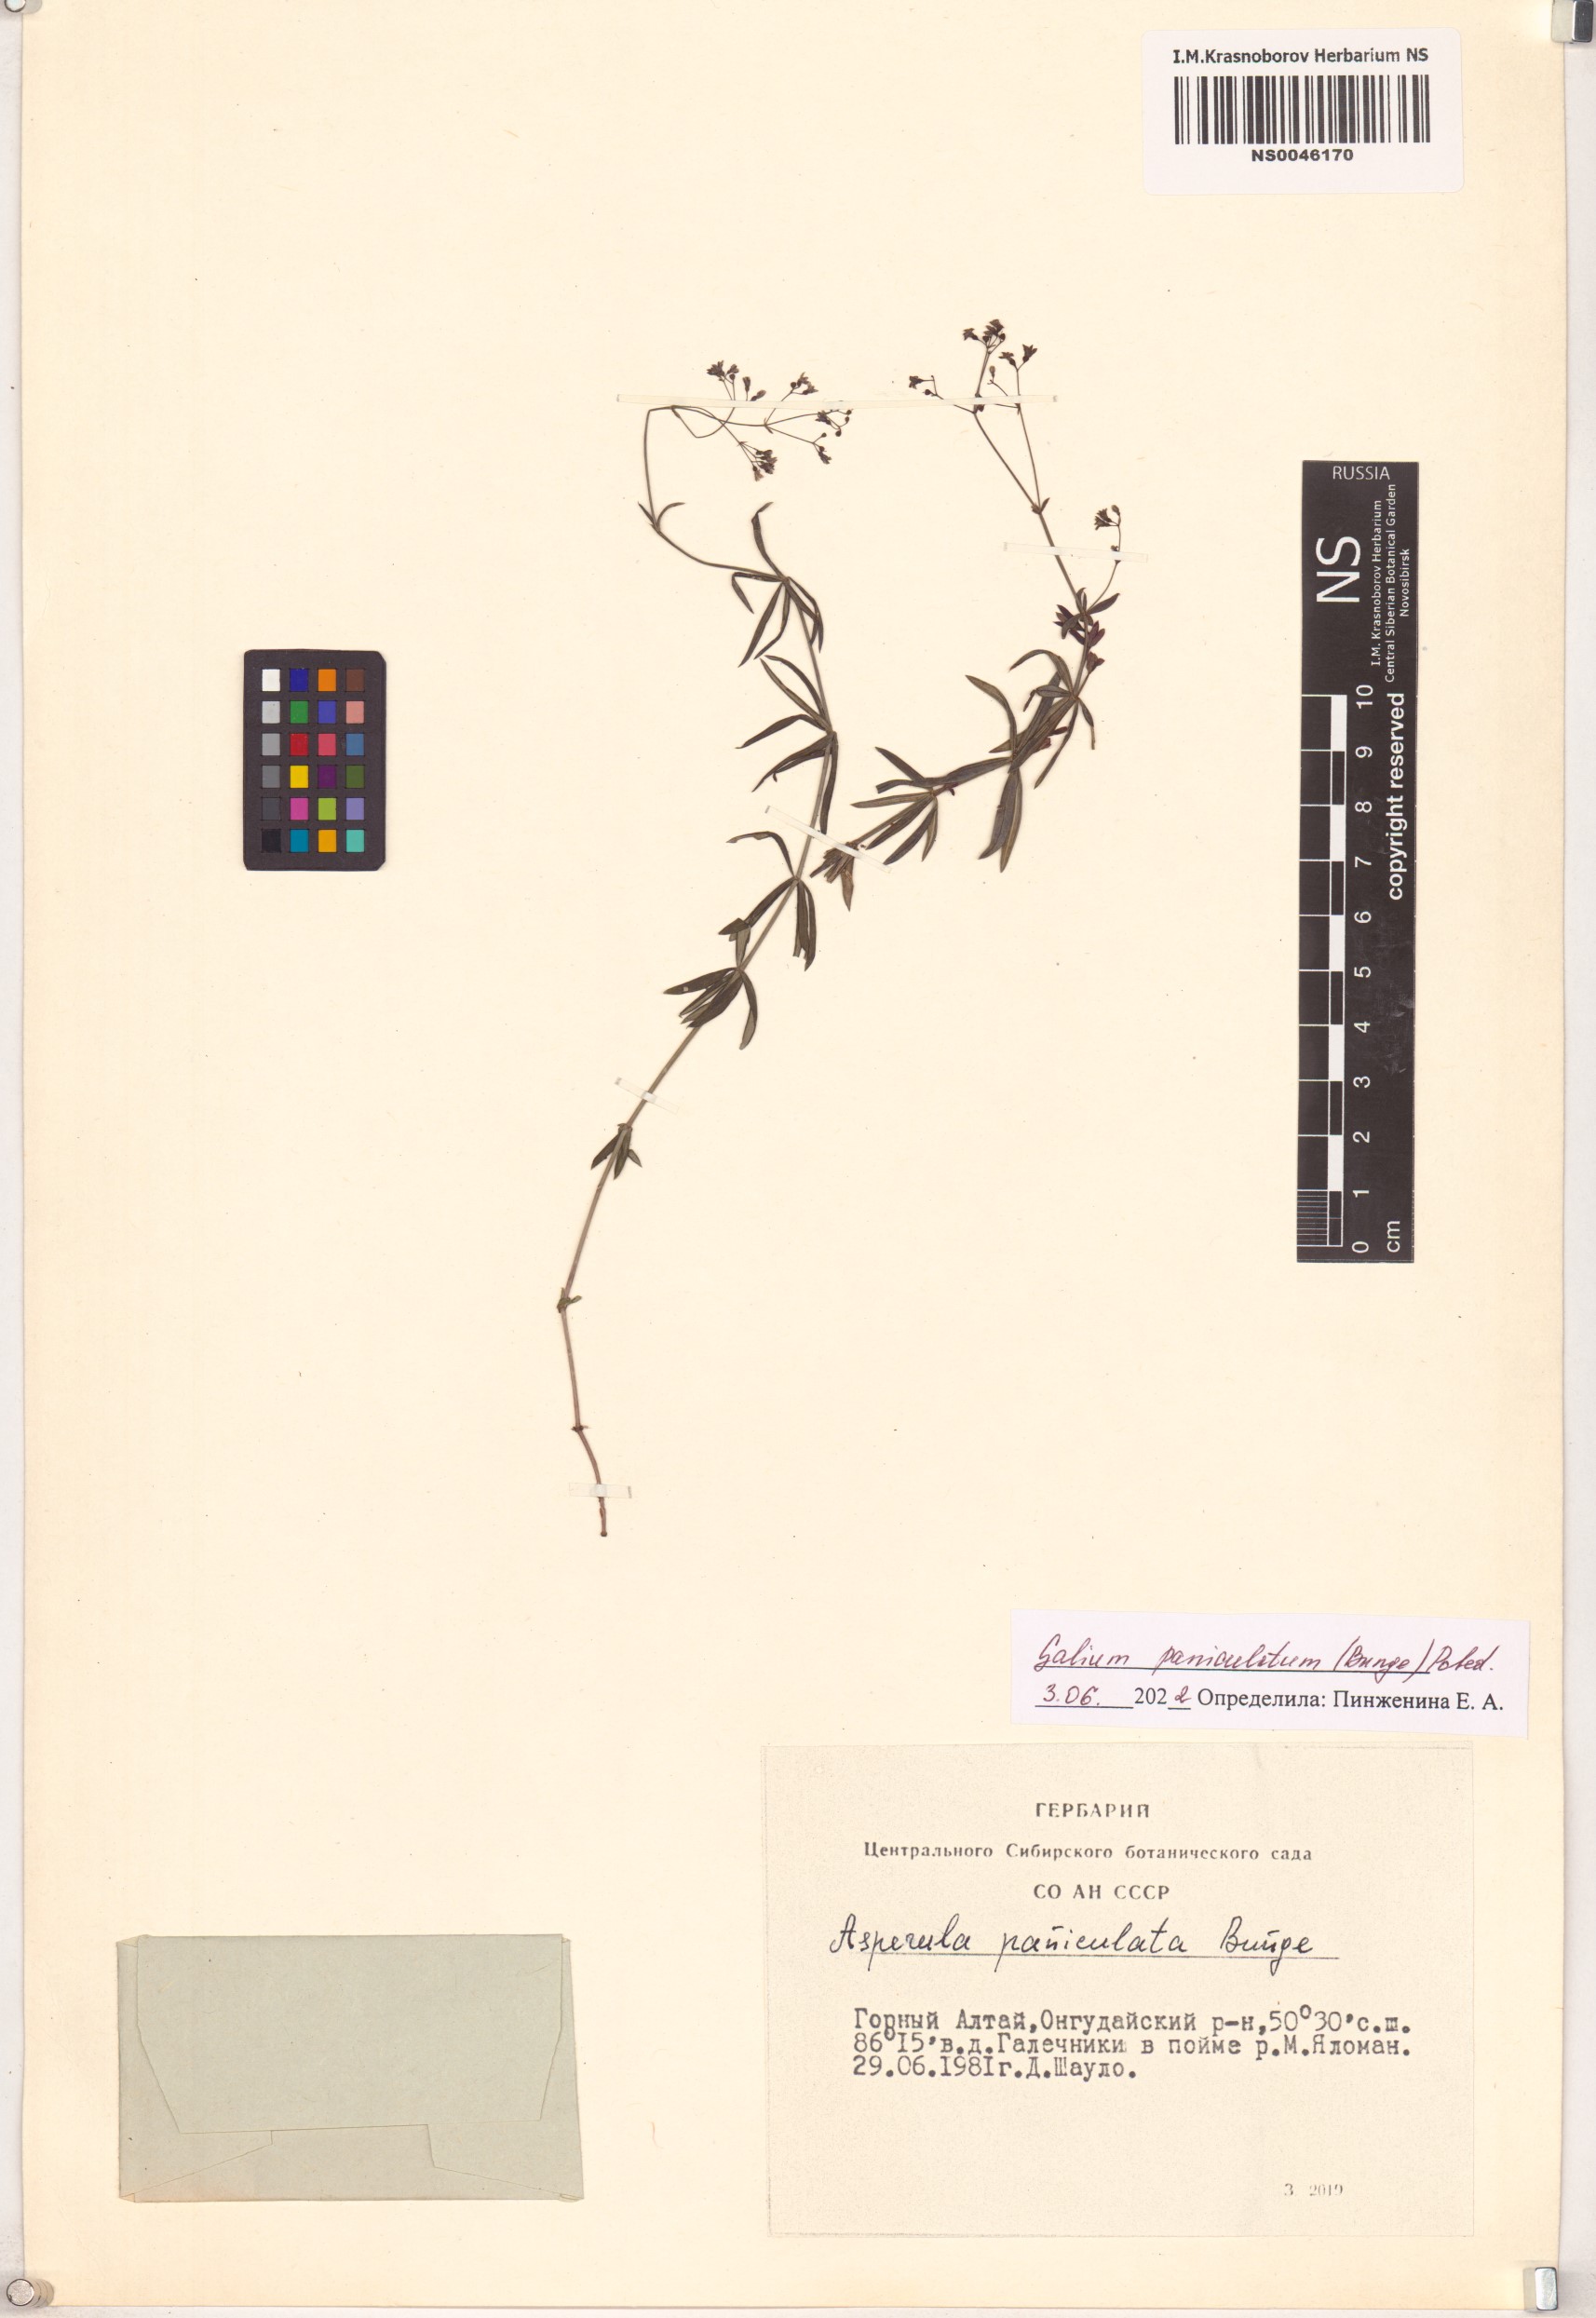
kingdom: Plantae
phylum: Tracheophyta
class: Magnoliopsida
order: Gentianales
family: Rubiaceae
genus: Galium
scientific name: Galium paniculatum
